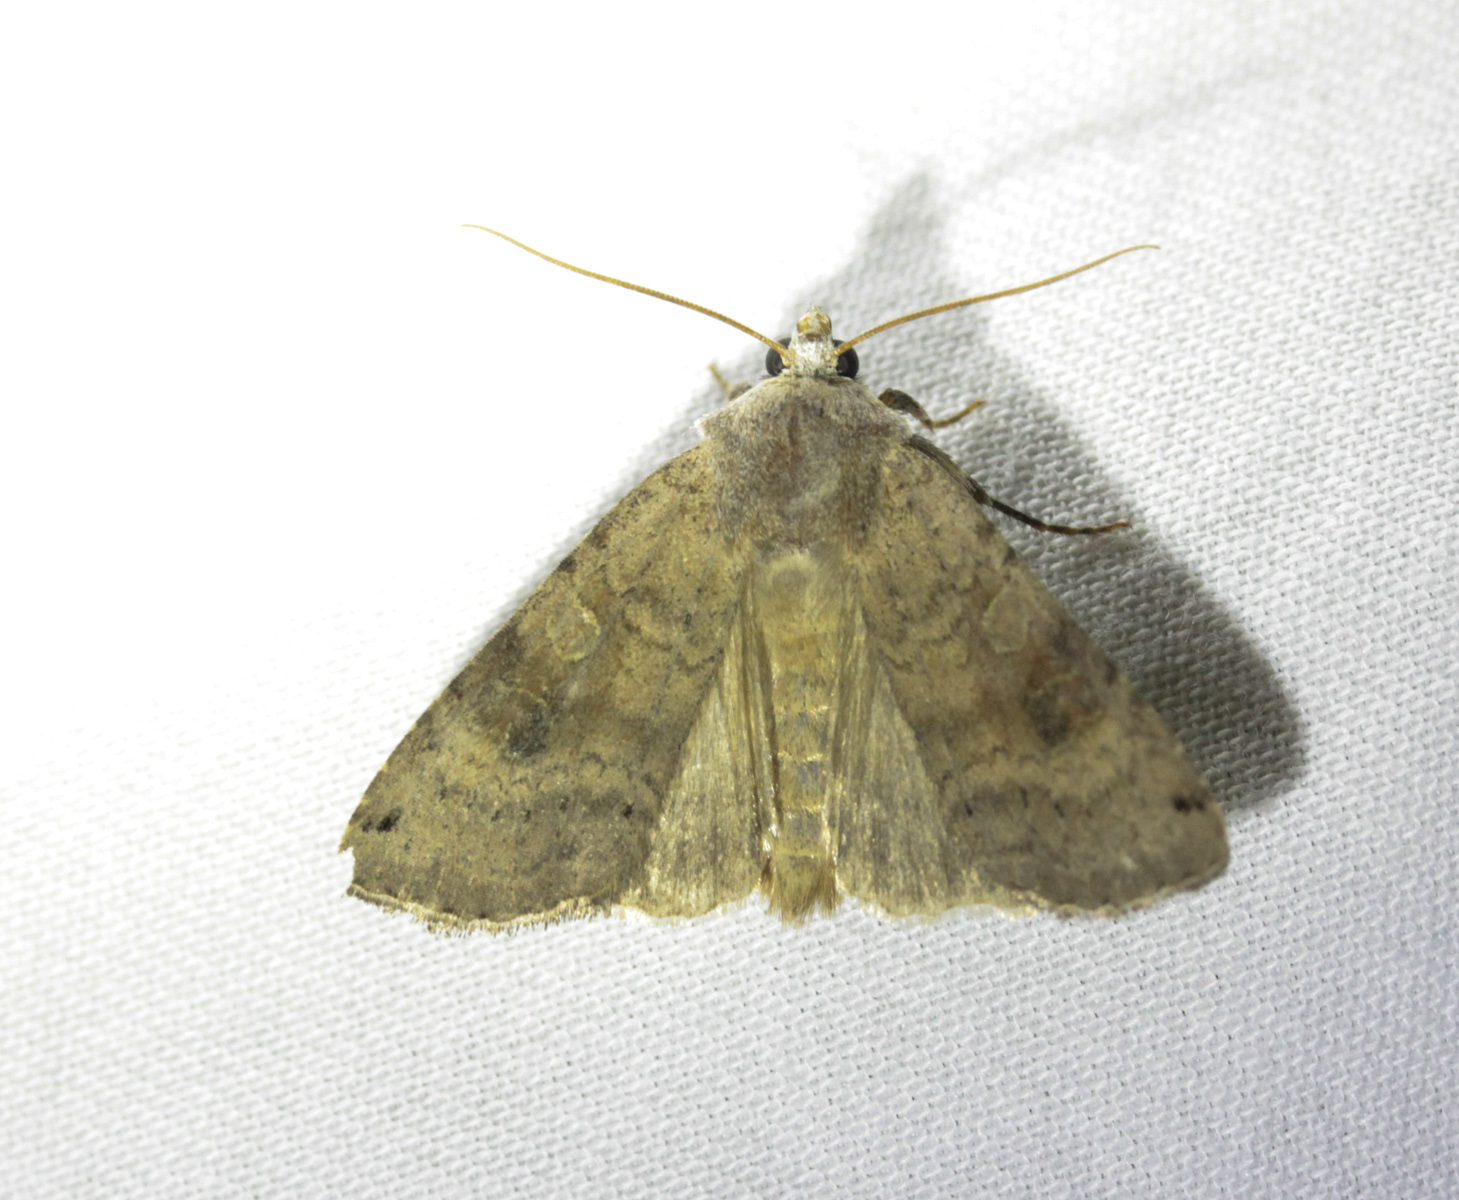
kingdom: Animalia
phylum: Arthropoda
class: Insecta
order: Lepidoptera
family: Noctuidae
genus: Xestia
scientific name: Xestia baja
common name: Dotted clay
